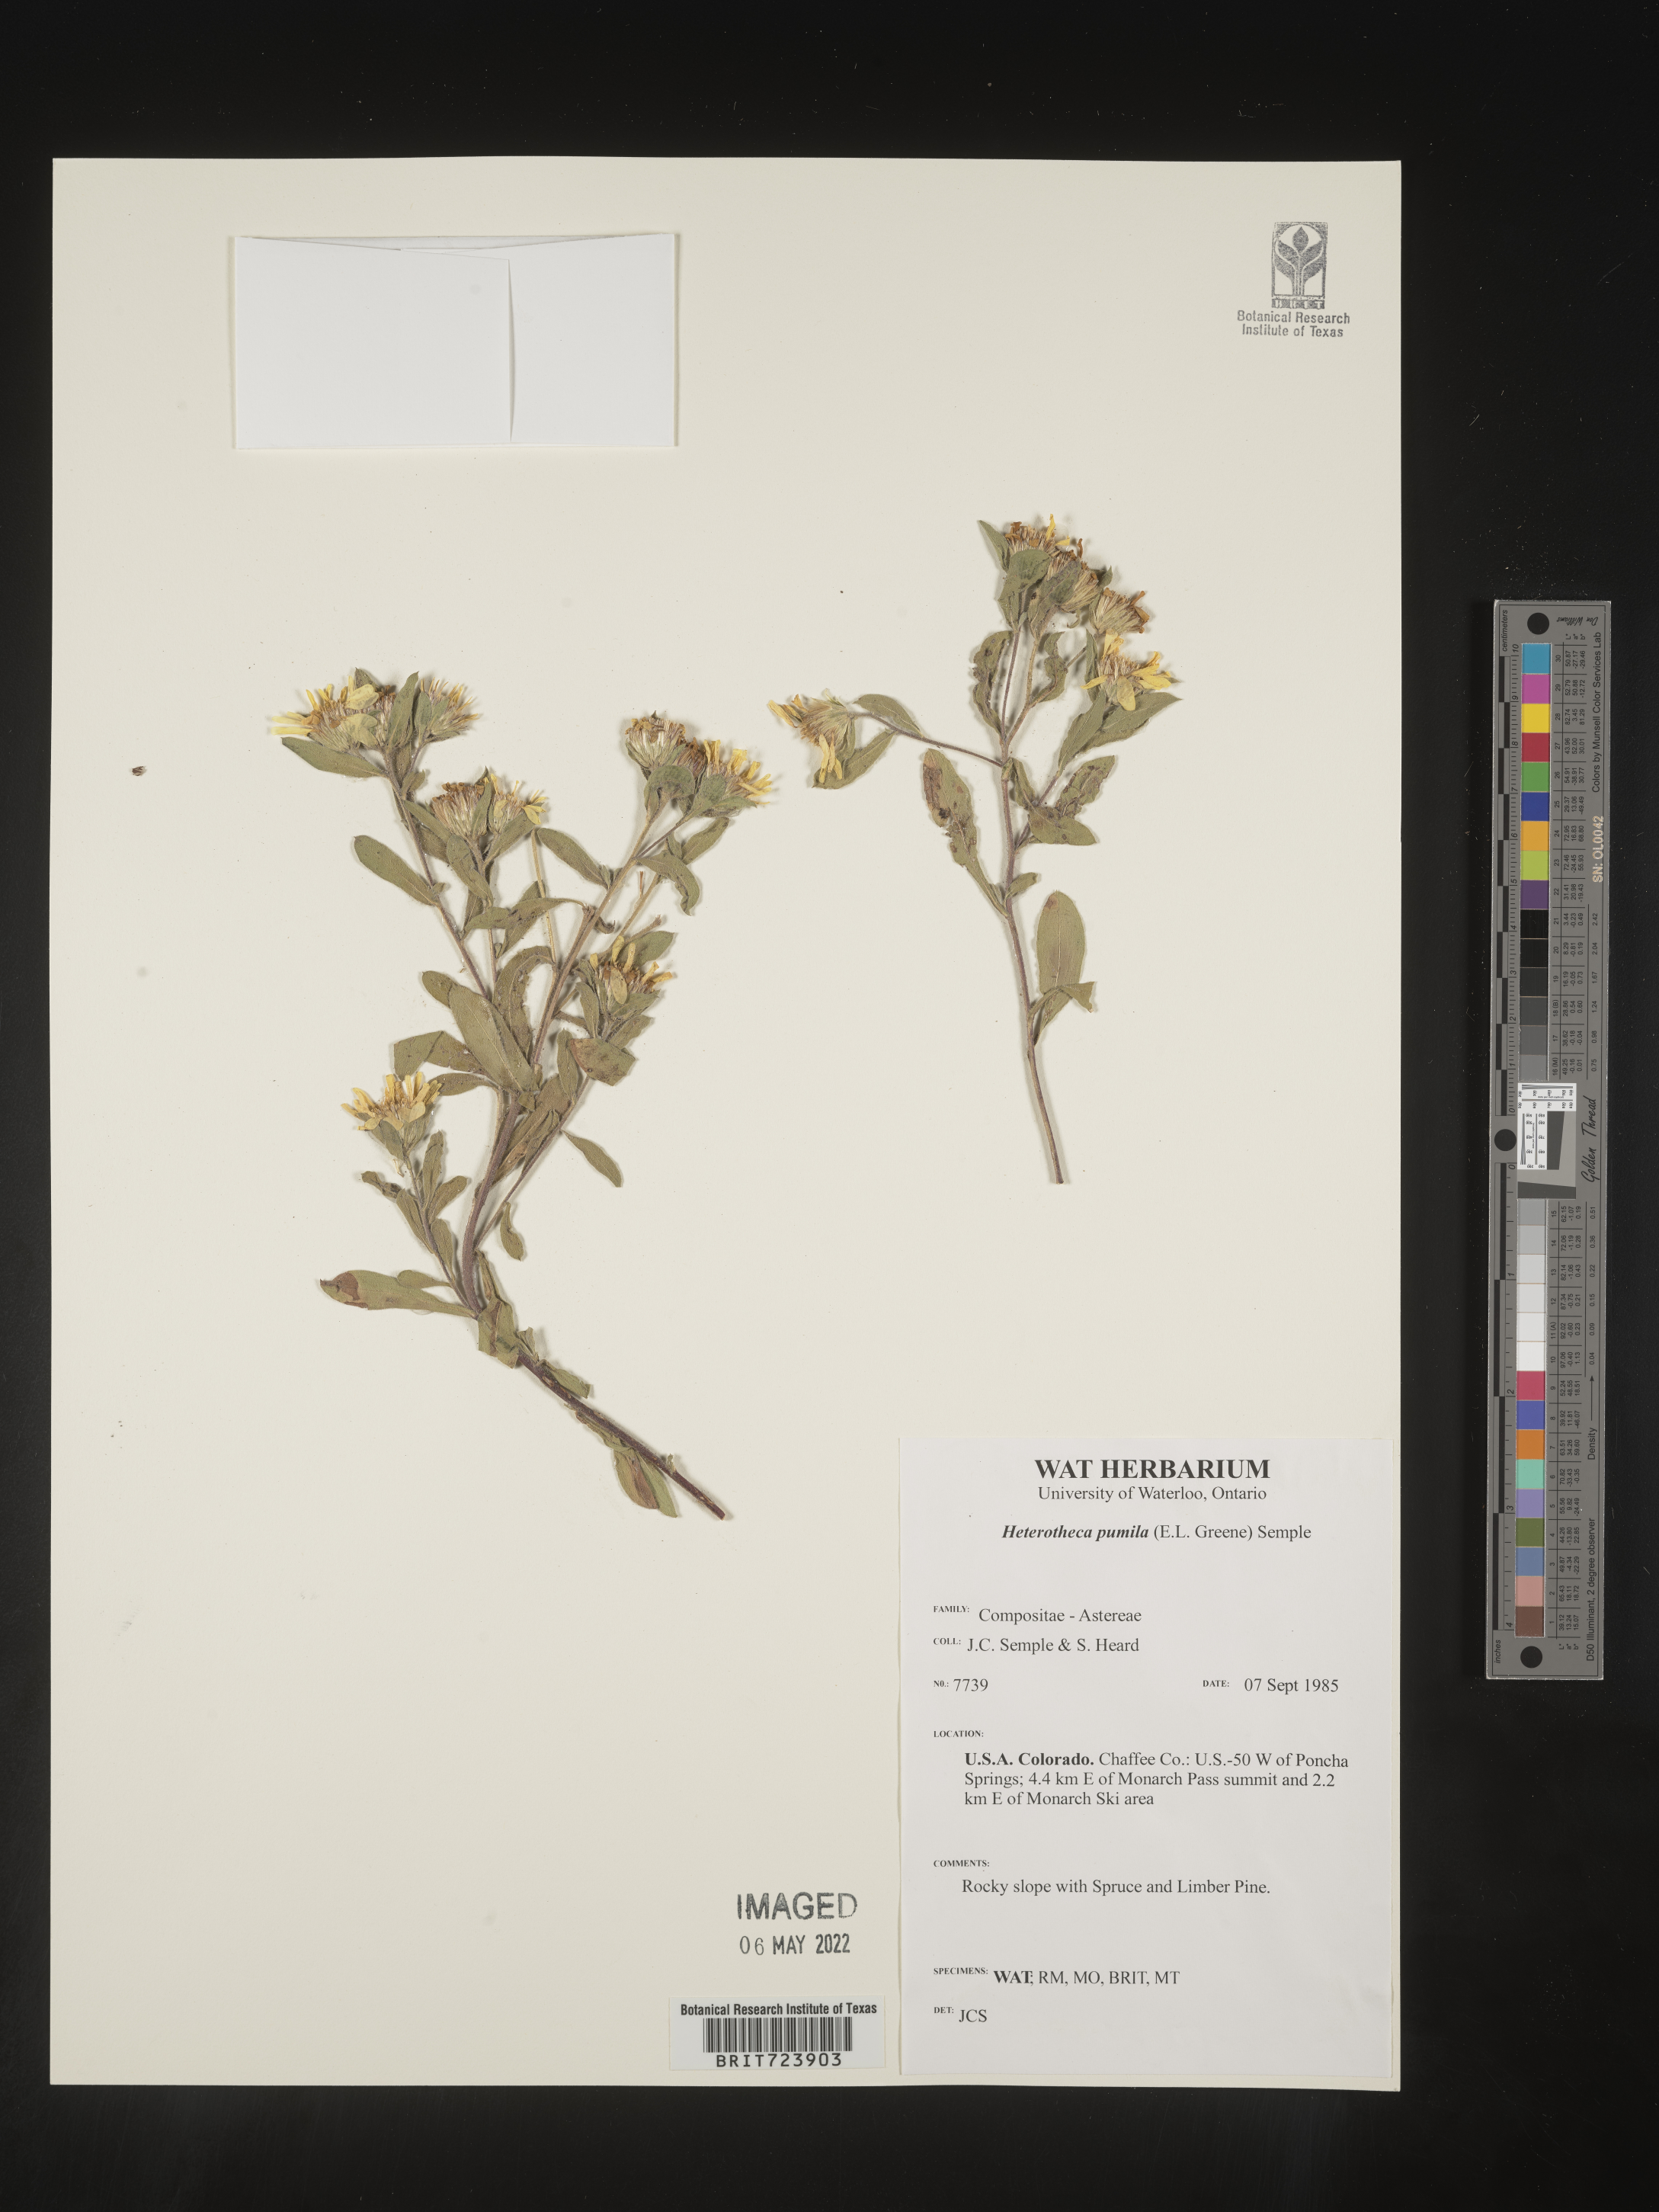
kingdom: Plantae
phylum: Tracheophyta
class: Magnoliopsida
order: Asterales
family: Asteraceae
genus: Heterotheca
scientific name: Heterotheca pumila
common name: Alpine golden-aster
